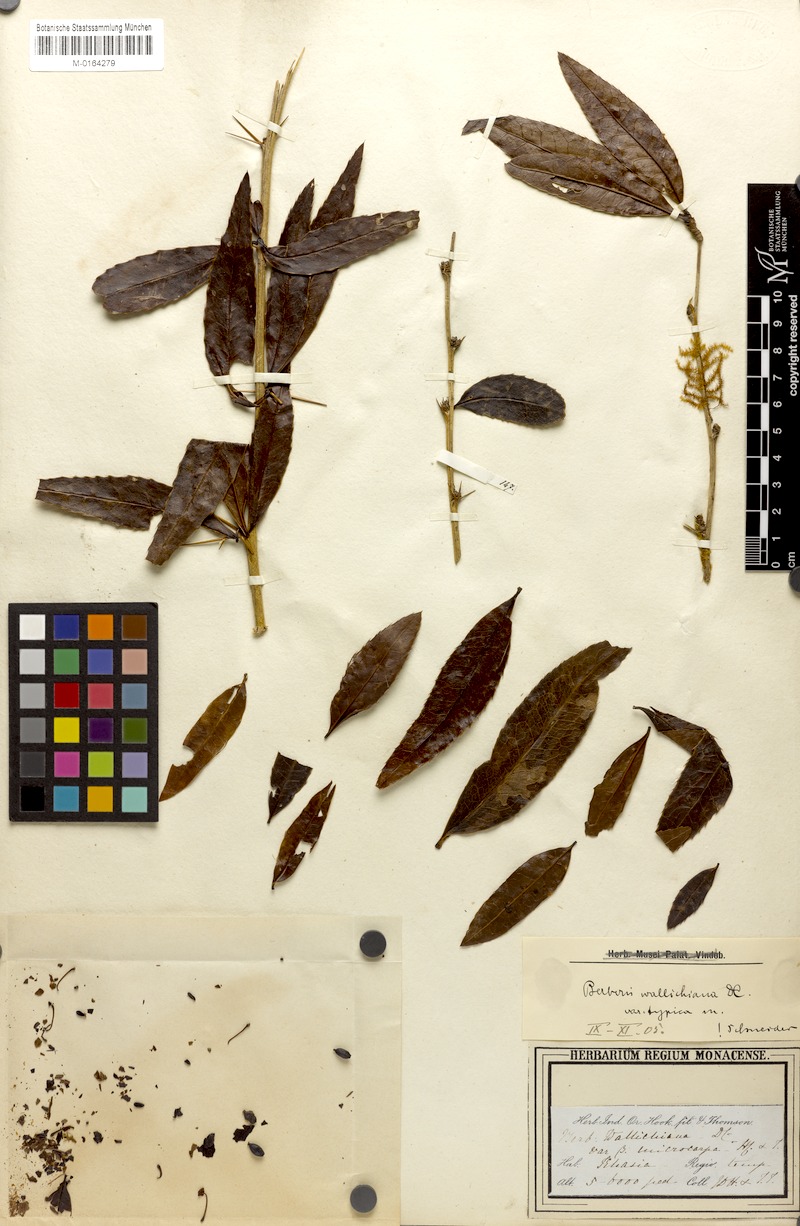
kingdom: Plantae
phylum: Tracheophyta
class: Magnoliopsida
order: Ranunculales
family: Berberidaceae
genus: Berberis
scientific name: Berberis wallichiana
